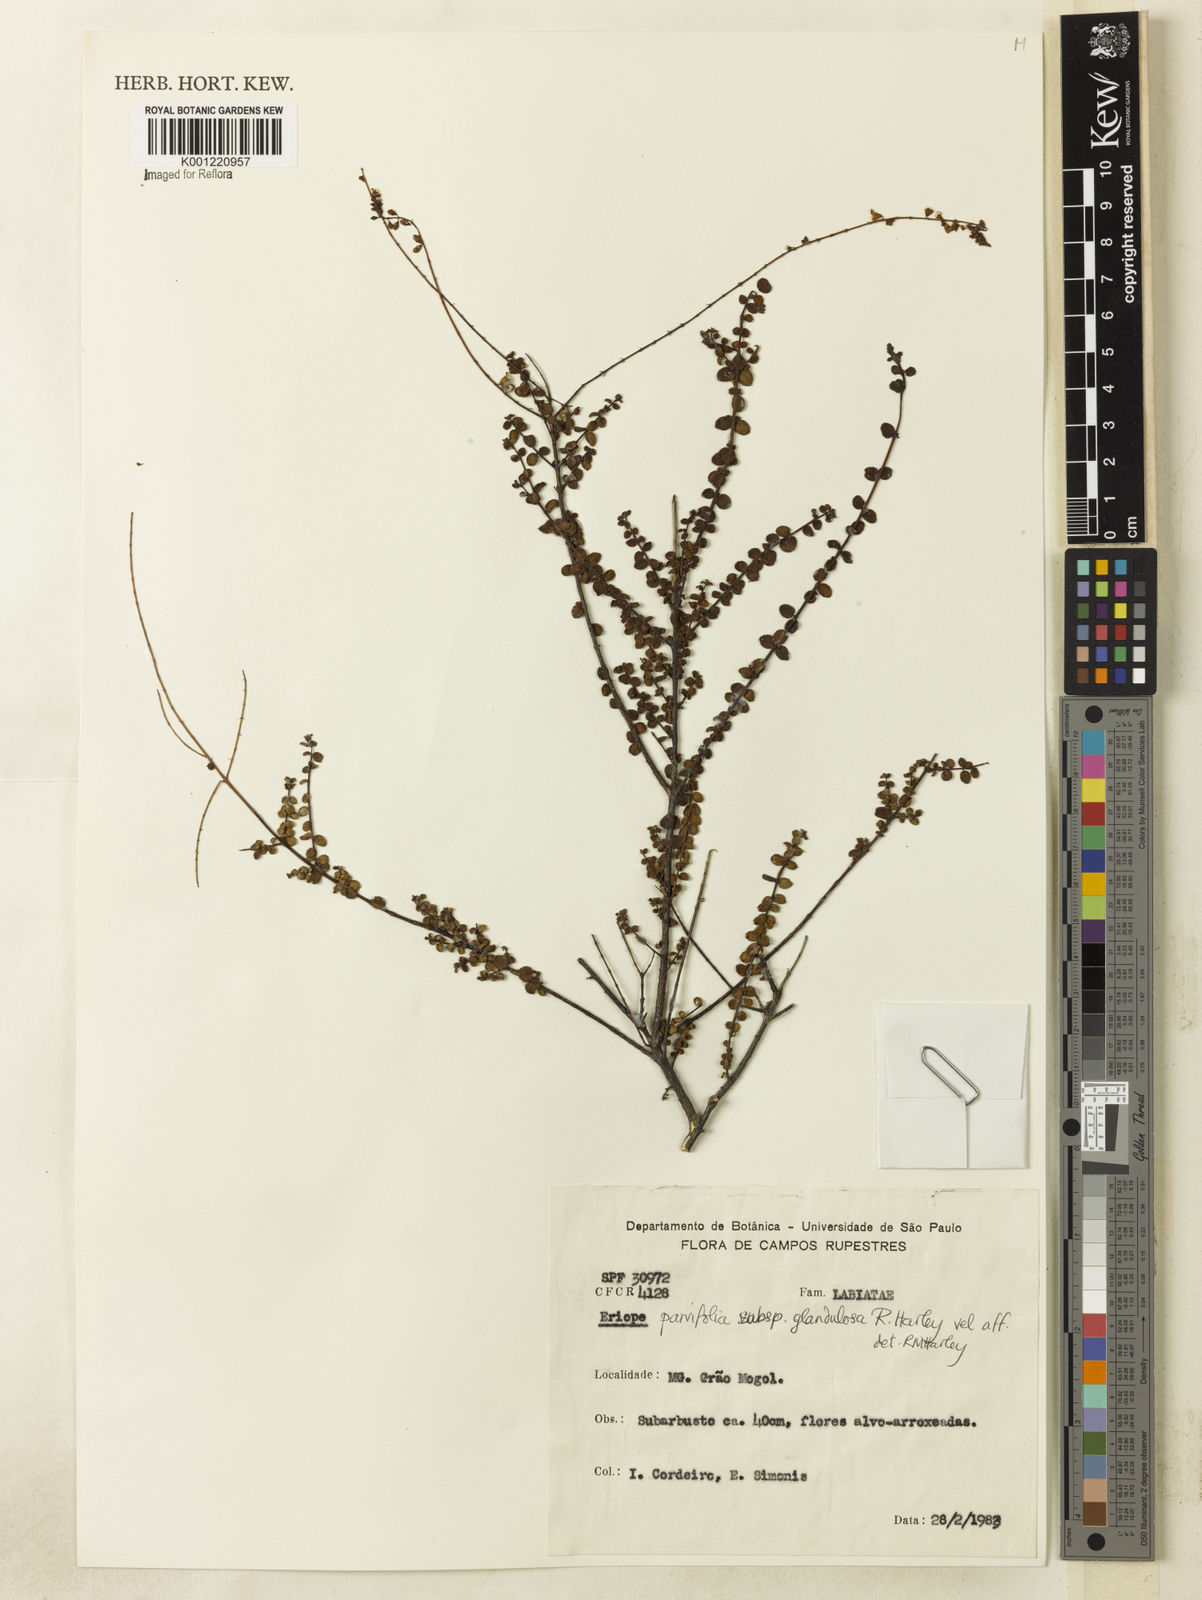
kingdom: Plantae
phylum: Tracheophyta
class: Magnoliopsida
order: Lamiales
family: Lamiaceae
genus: Eriope
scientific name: Eriope glandulosa
